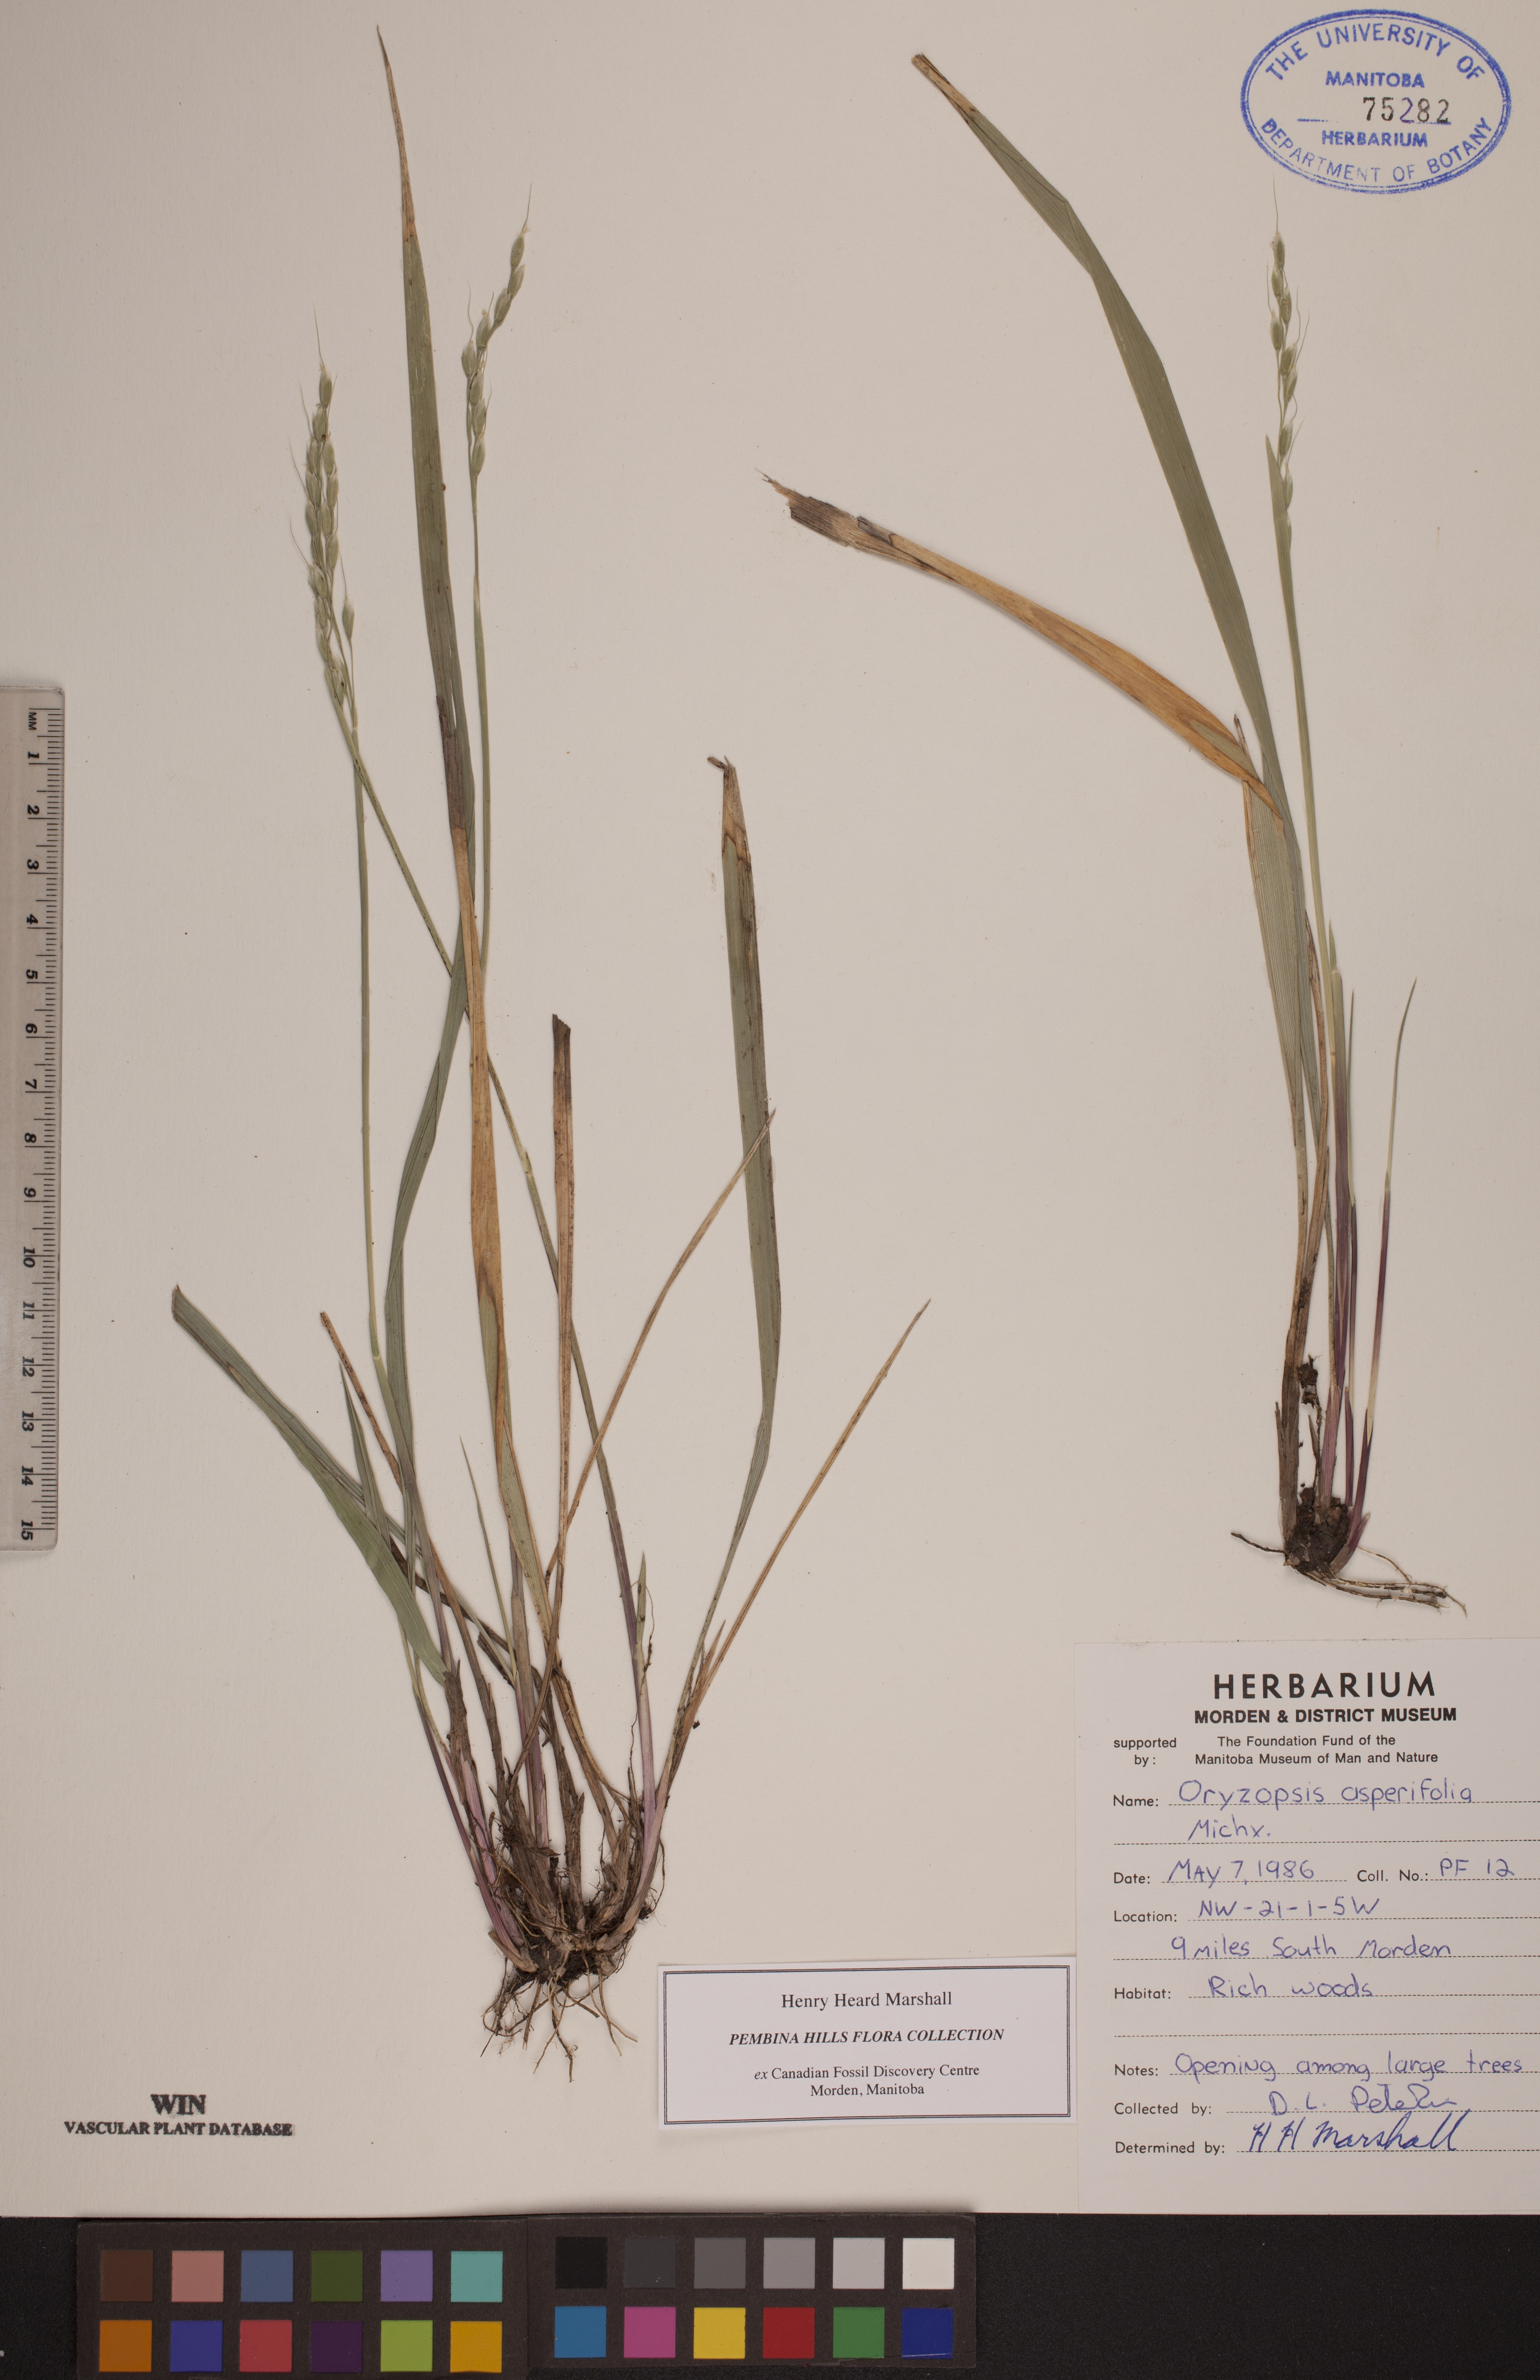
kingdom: Plantae
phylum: Tracheophyta
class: Liliopsida
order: Poales
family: Poaceae
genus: Oryzopsis
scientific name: Oryzopsis asperifolia
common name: Rough-leaved mountain rice
